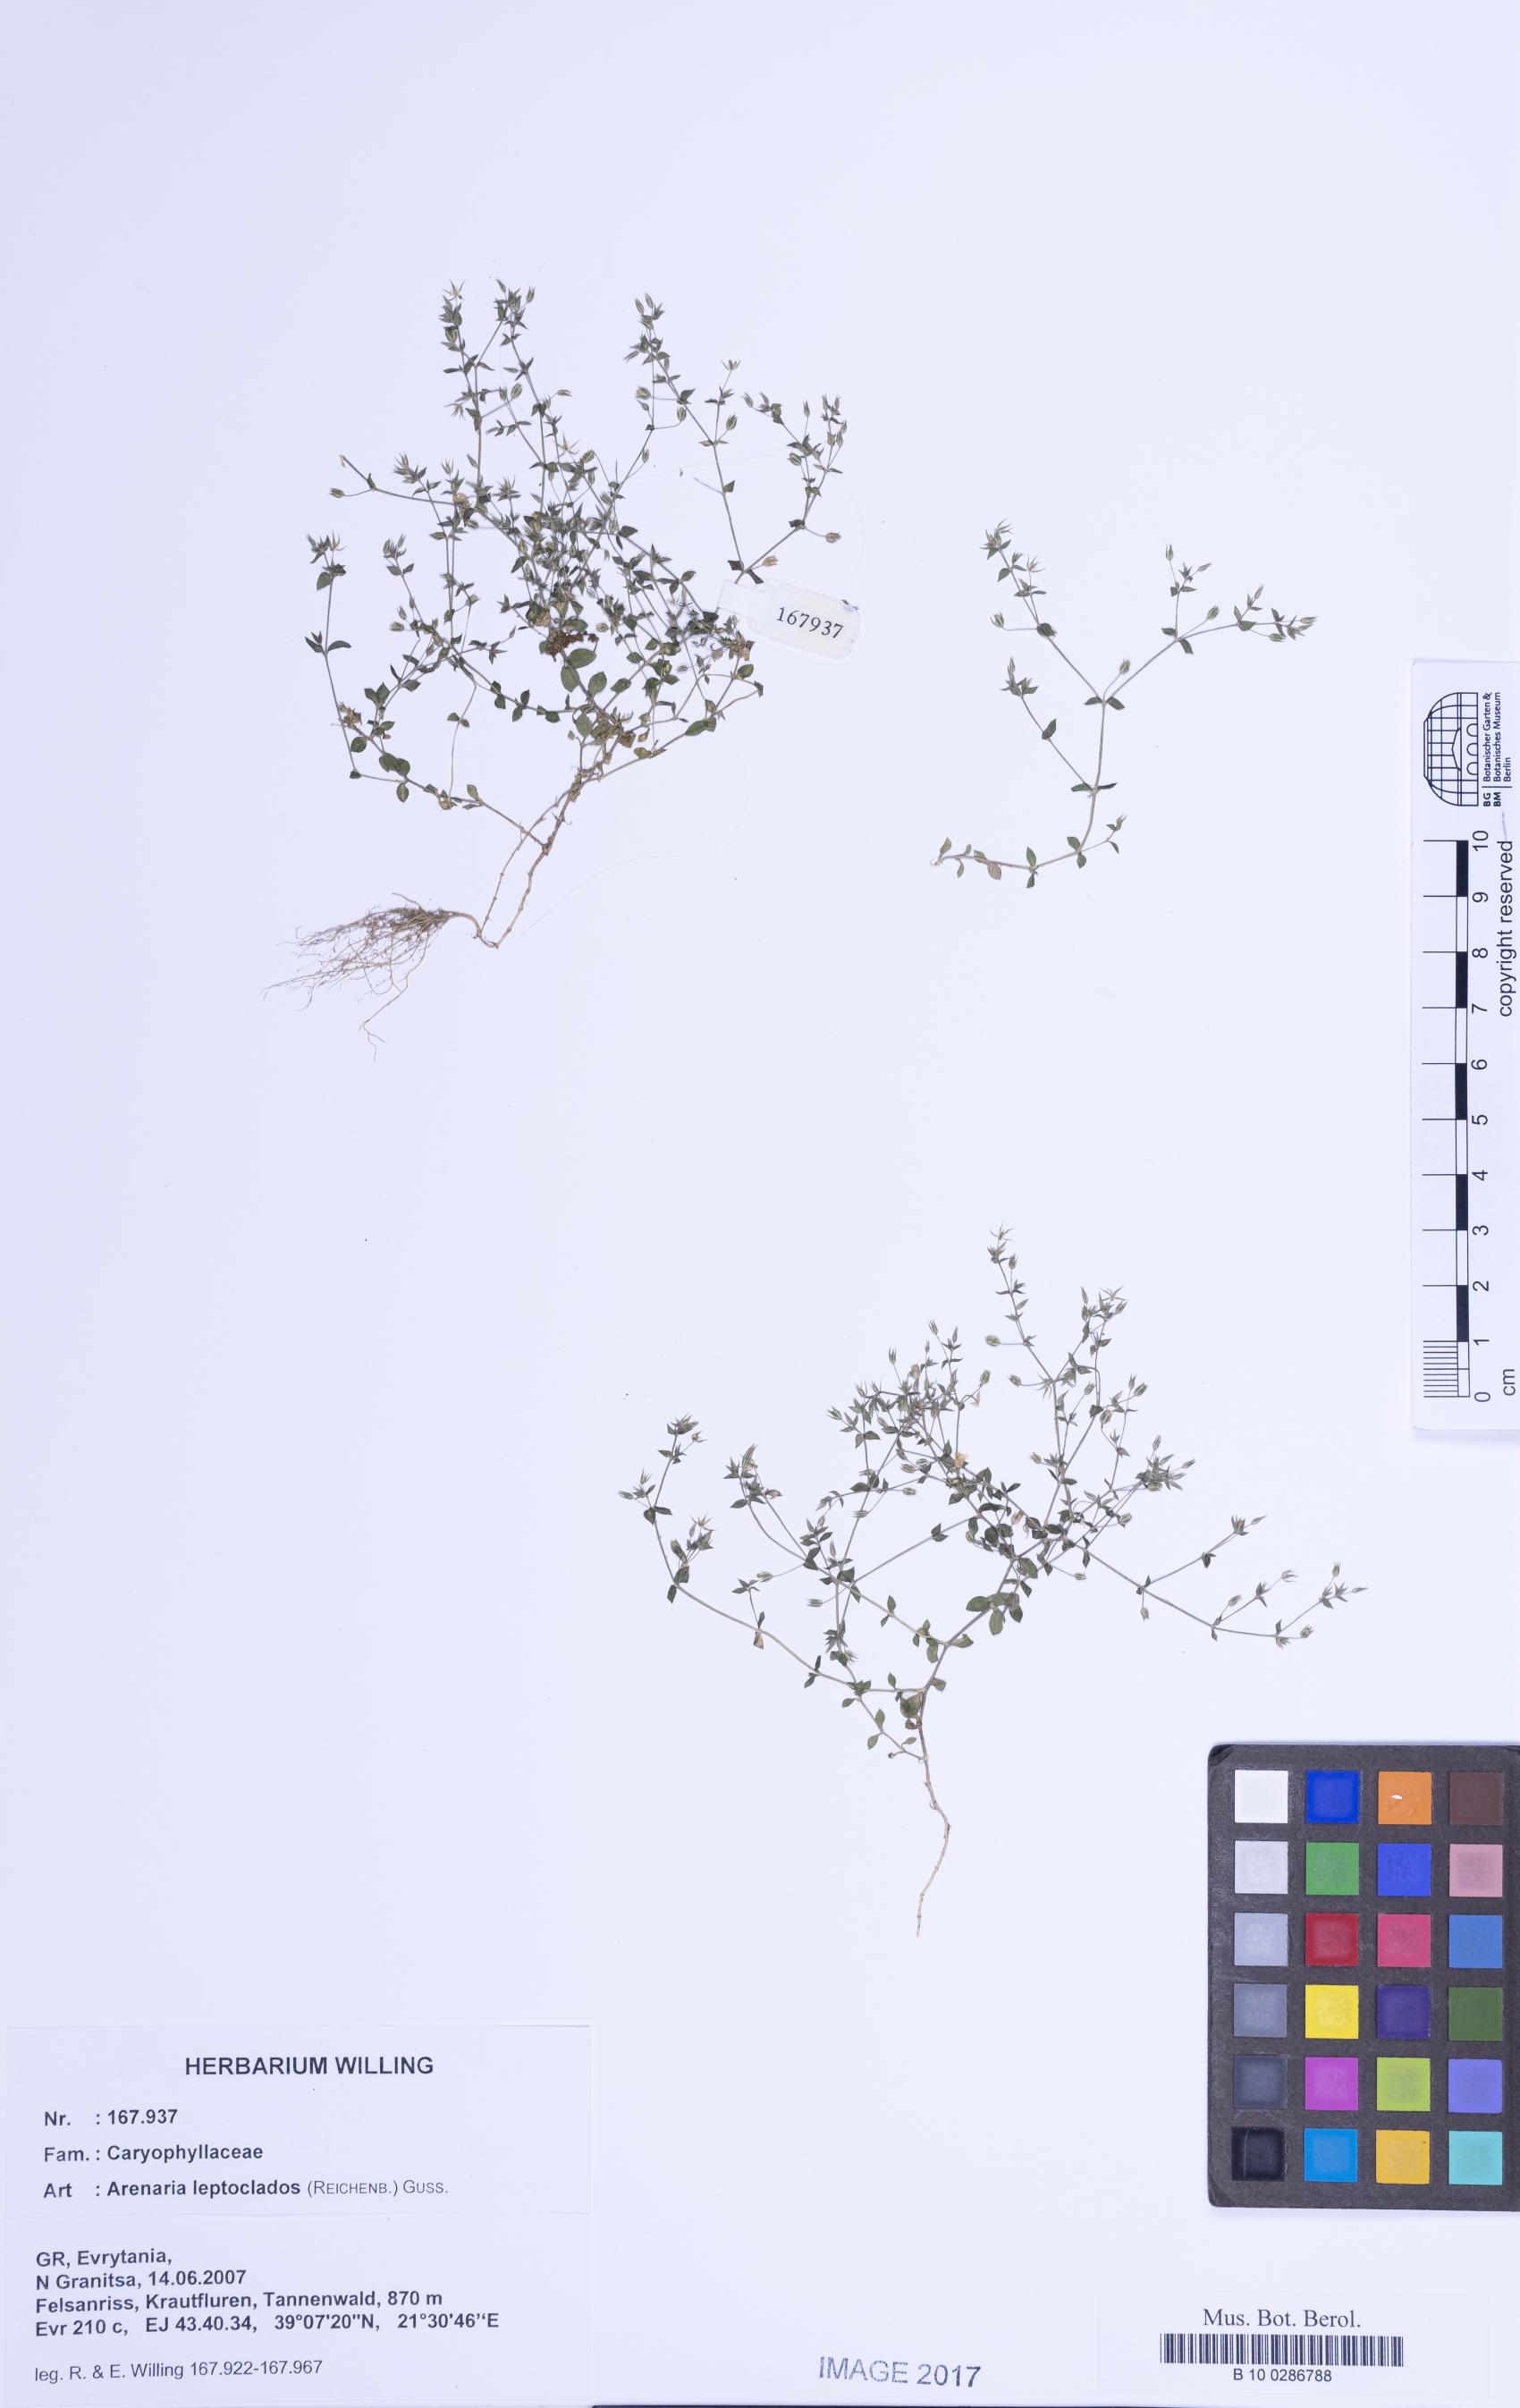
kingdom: Plantae
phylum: Tracheophyta
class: Magnoliopsida
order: Caryophyllales
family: Caryophyllaceae
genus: Arenaria
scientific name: Arenaria leptoclados
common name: Thyme-leaved sandwort
